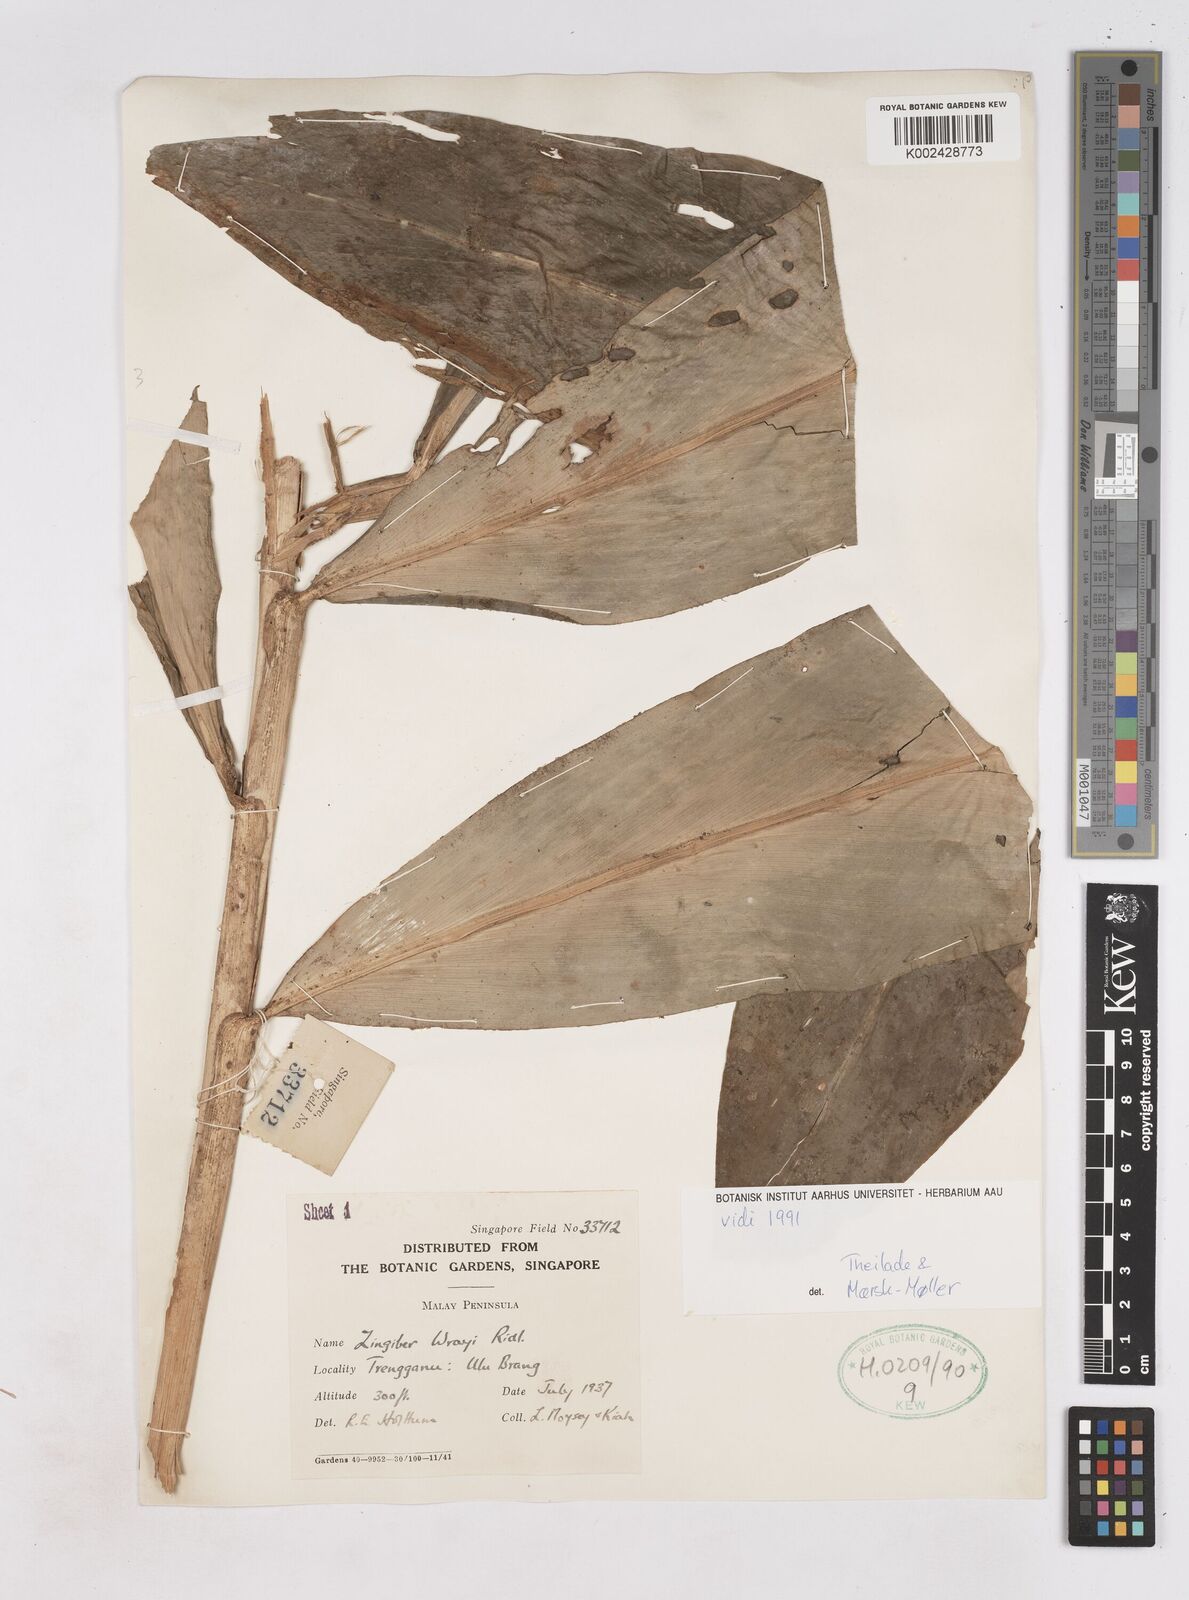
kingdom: Plantae
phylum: Tracheophyta
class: Liliopsida
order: Zingiberales
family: Zingiberaceae
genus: Zingiber
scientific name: Zingiber wrayi
